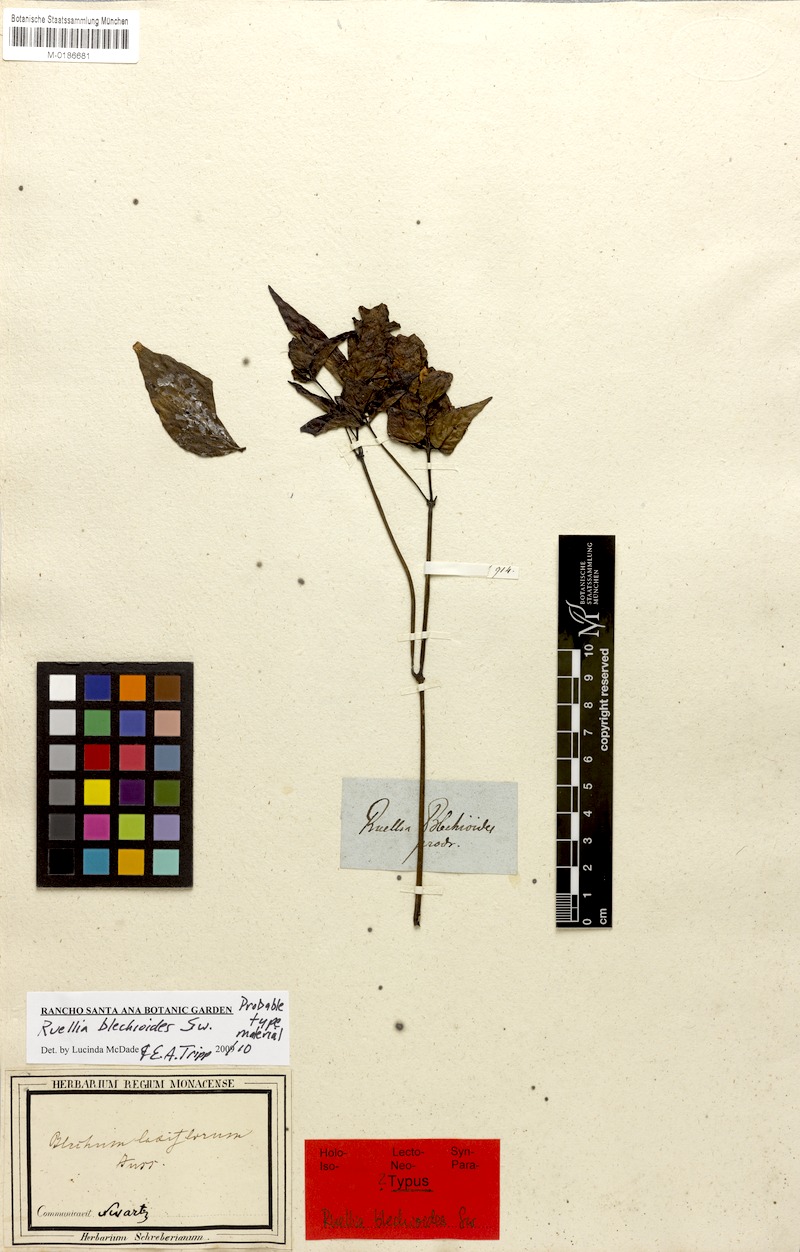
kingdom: Plantae
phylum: Tracheophyta
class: Magnoliopsida
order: Lamiales
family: Acanthaceae
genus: Ruellia
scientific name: Ruellia blechioides
